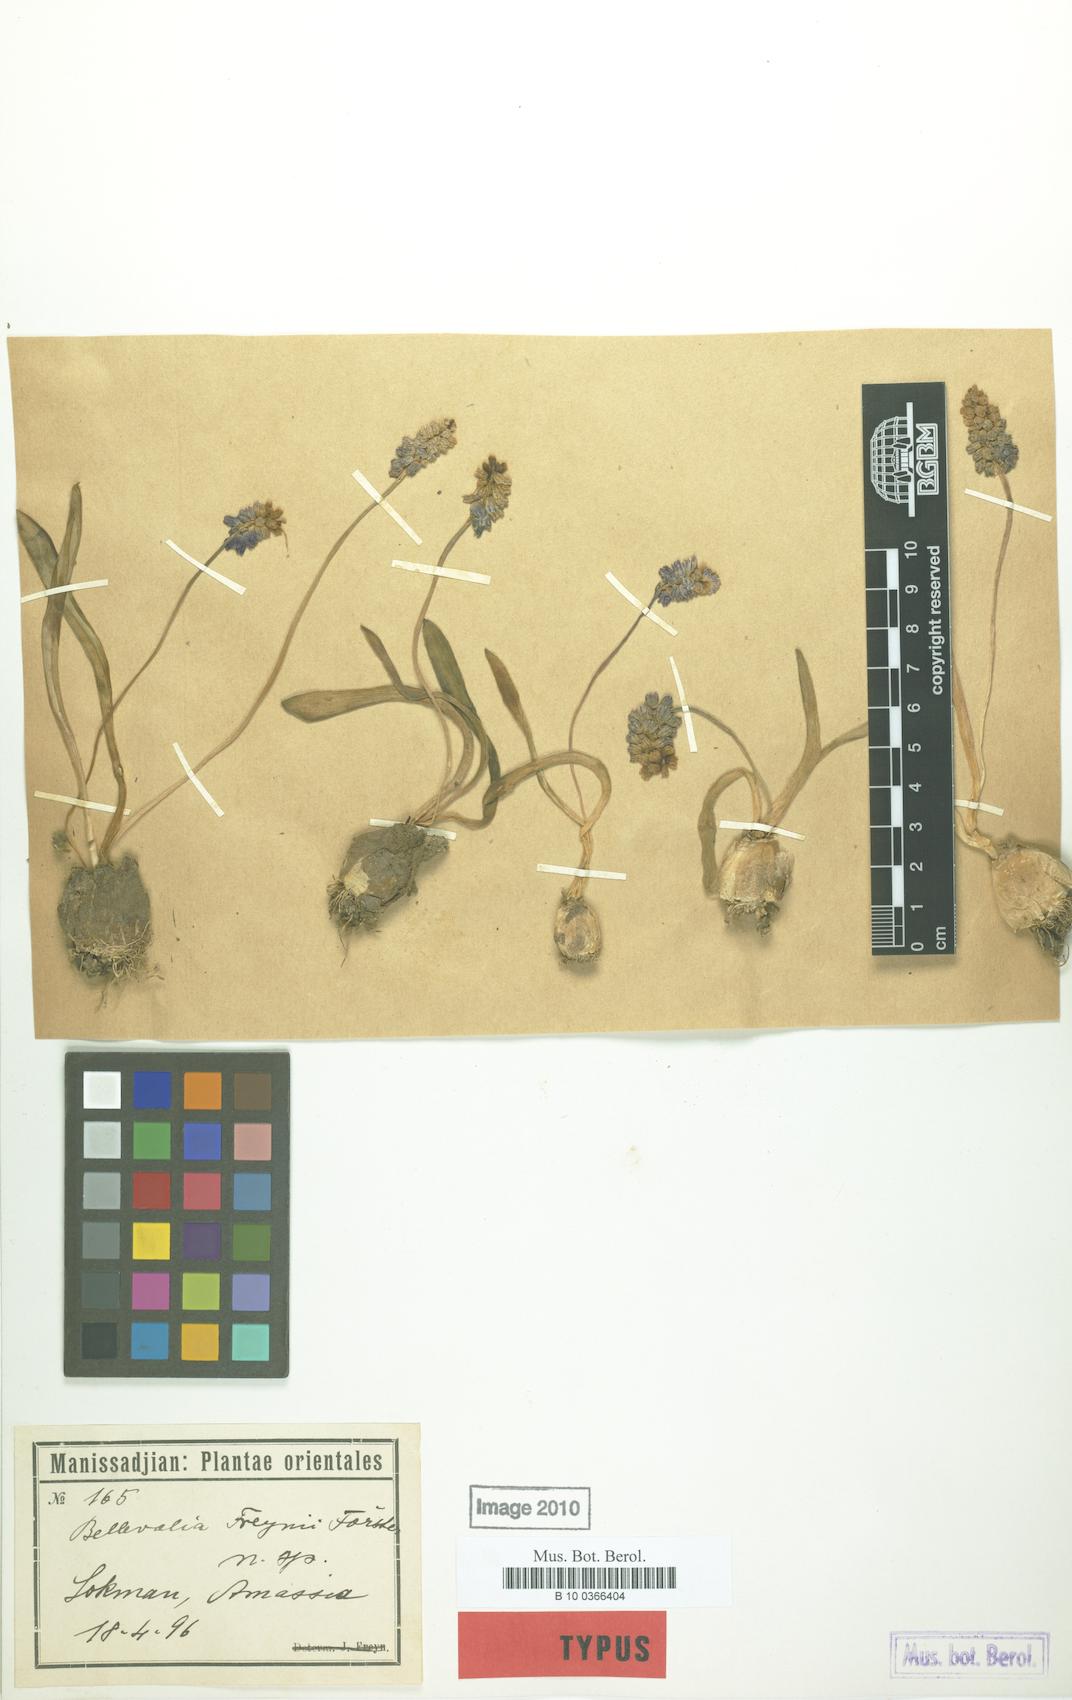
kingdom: Plantae
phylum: Tracheophyta
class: Liliopsida
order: Asparagales
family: Asparagaceae
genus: Hyacinthus
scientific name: Hyacinthus
